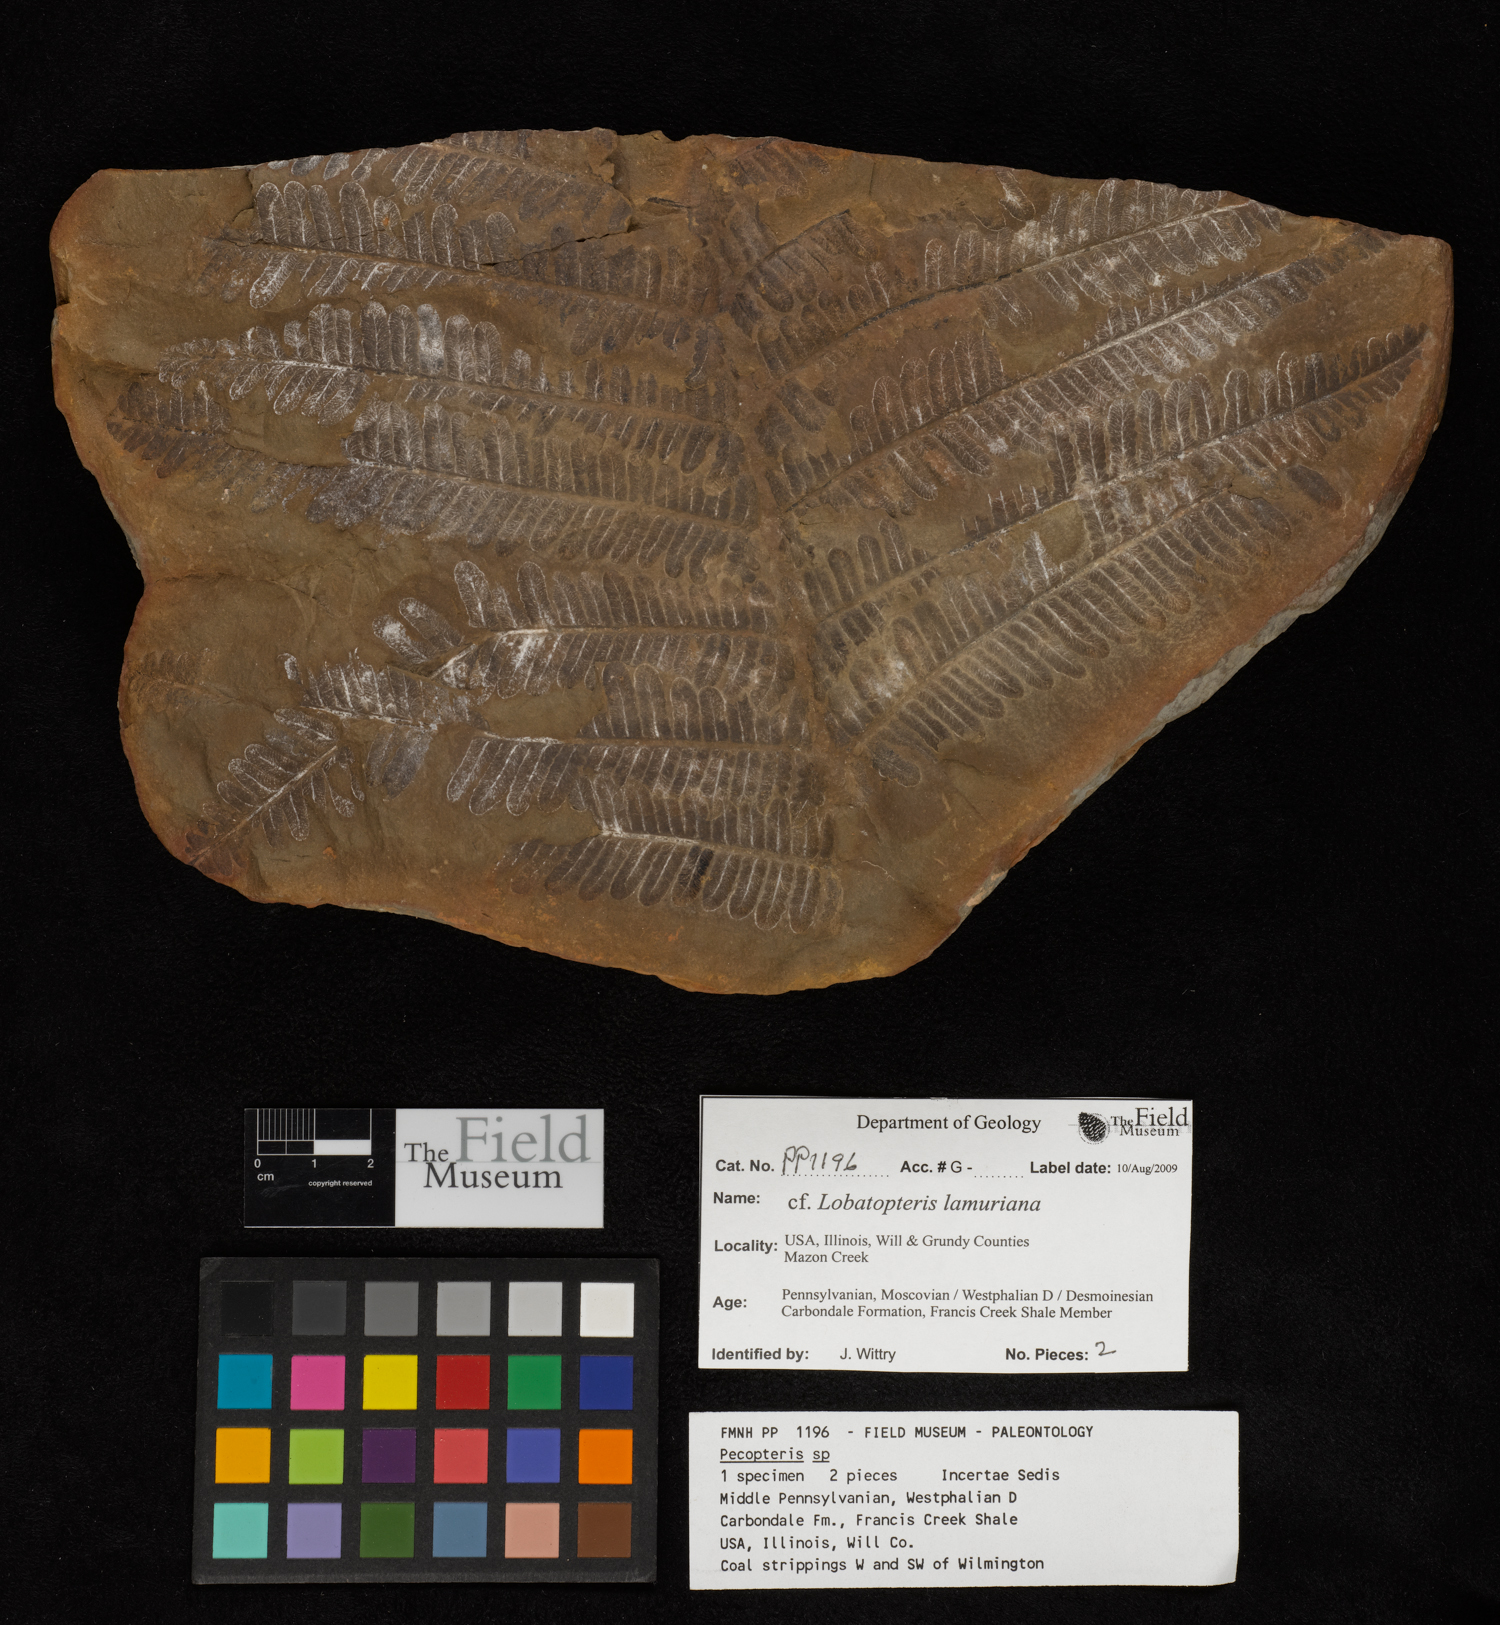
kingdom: Plantae
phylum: Tracheophyta
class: Polypodiopsida
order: Marattiales
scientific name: Marattiales
